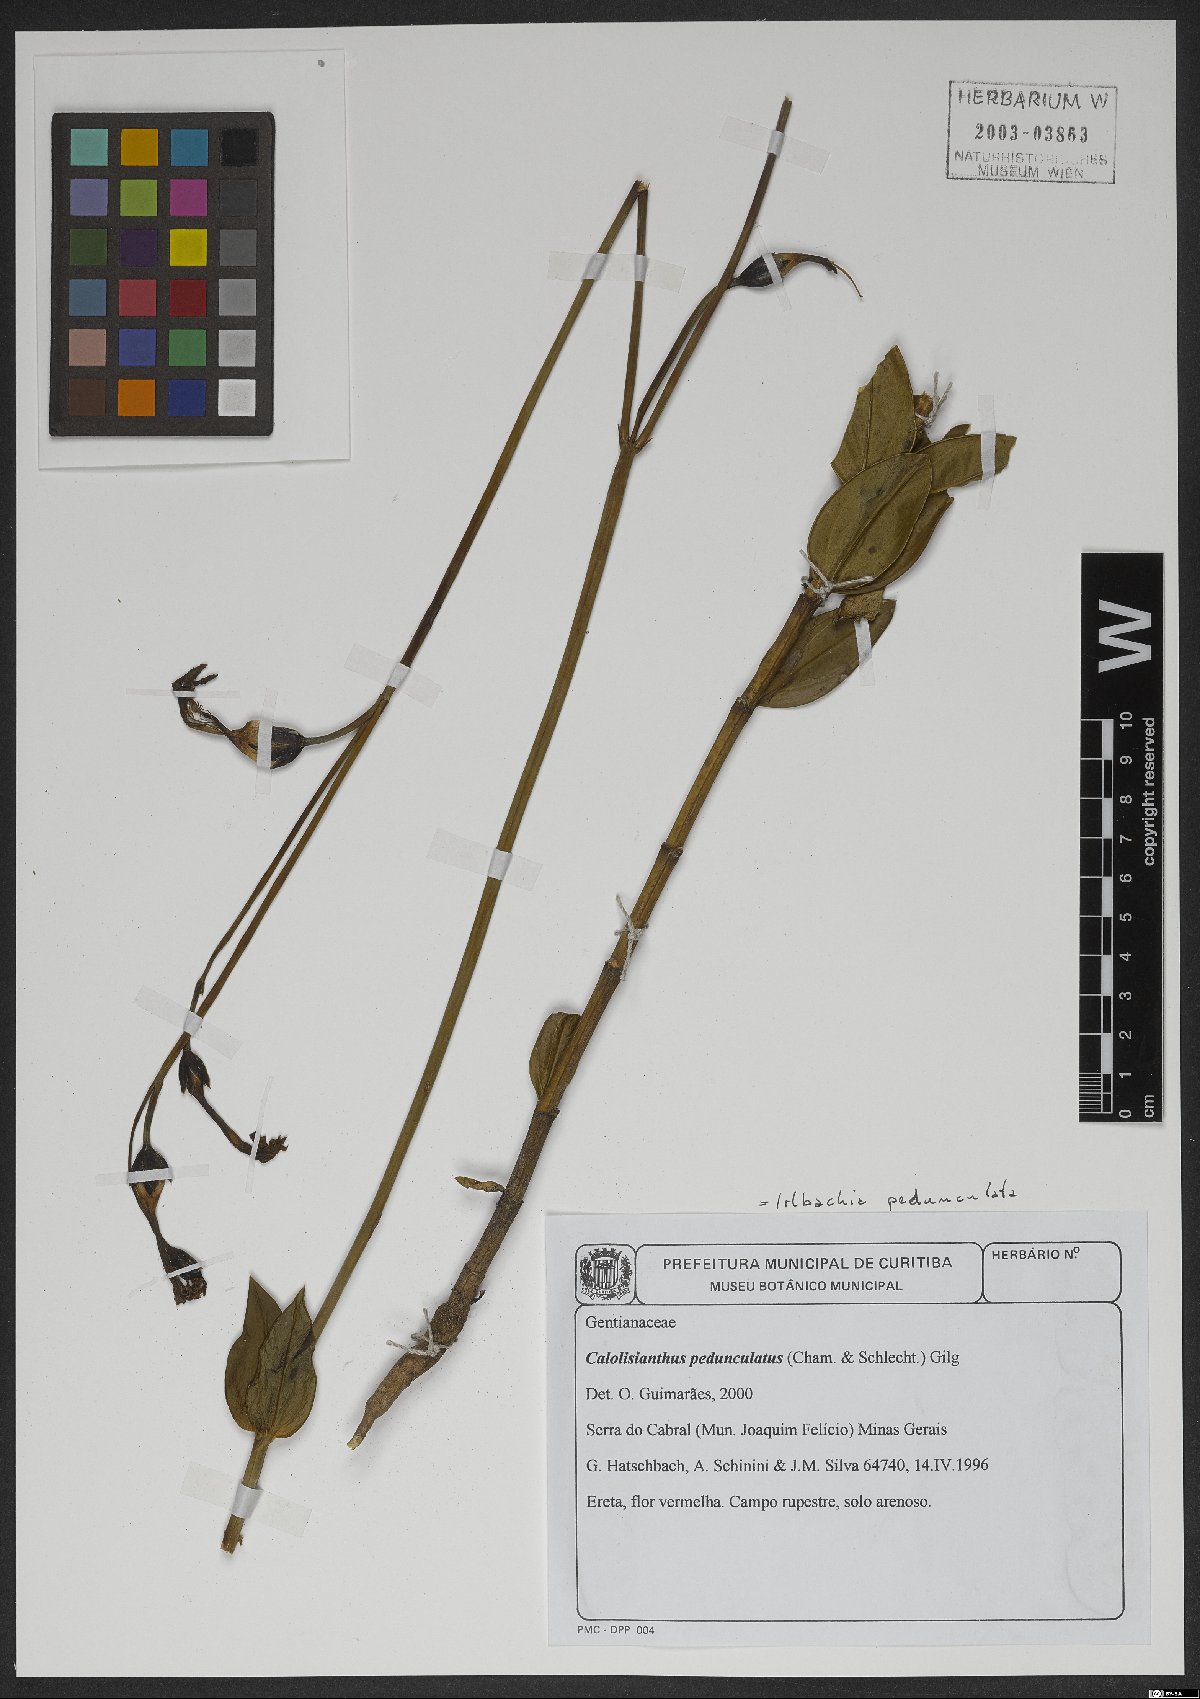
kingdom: Plantae
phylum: Tracheophyta
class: Magnoliopsida
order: Gentianales
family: Gentianaceae
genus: Calolisianthus
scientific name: Calolisianthus pedunculatus
